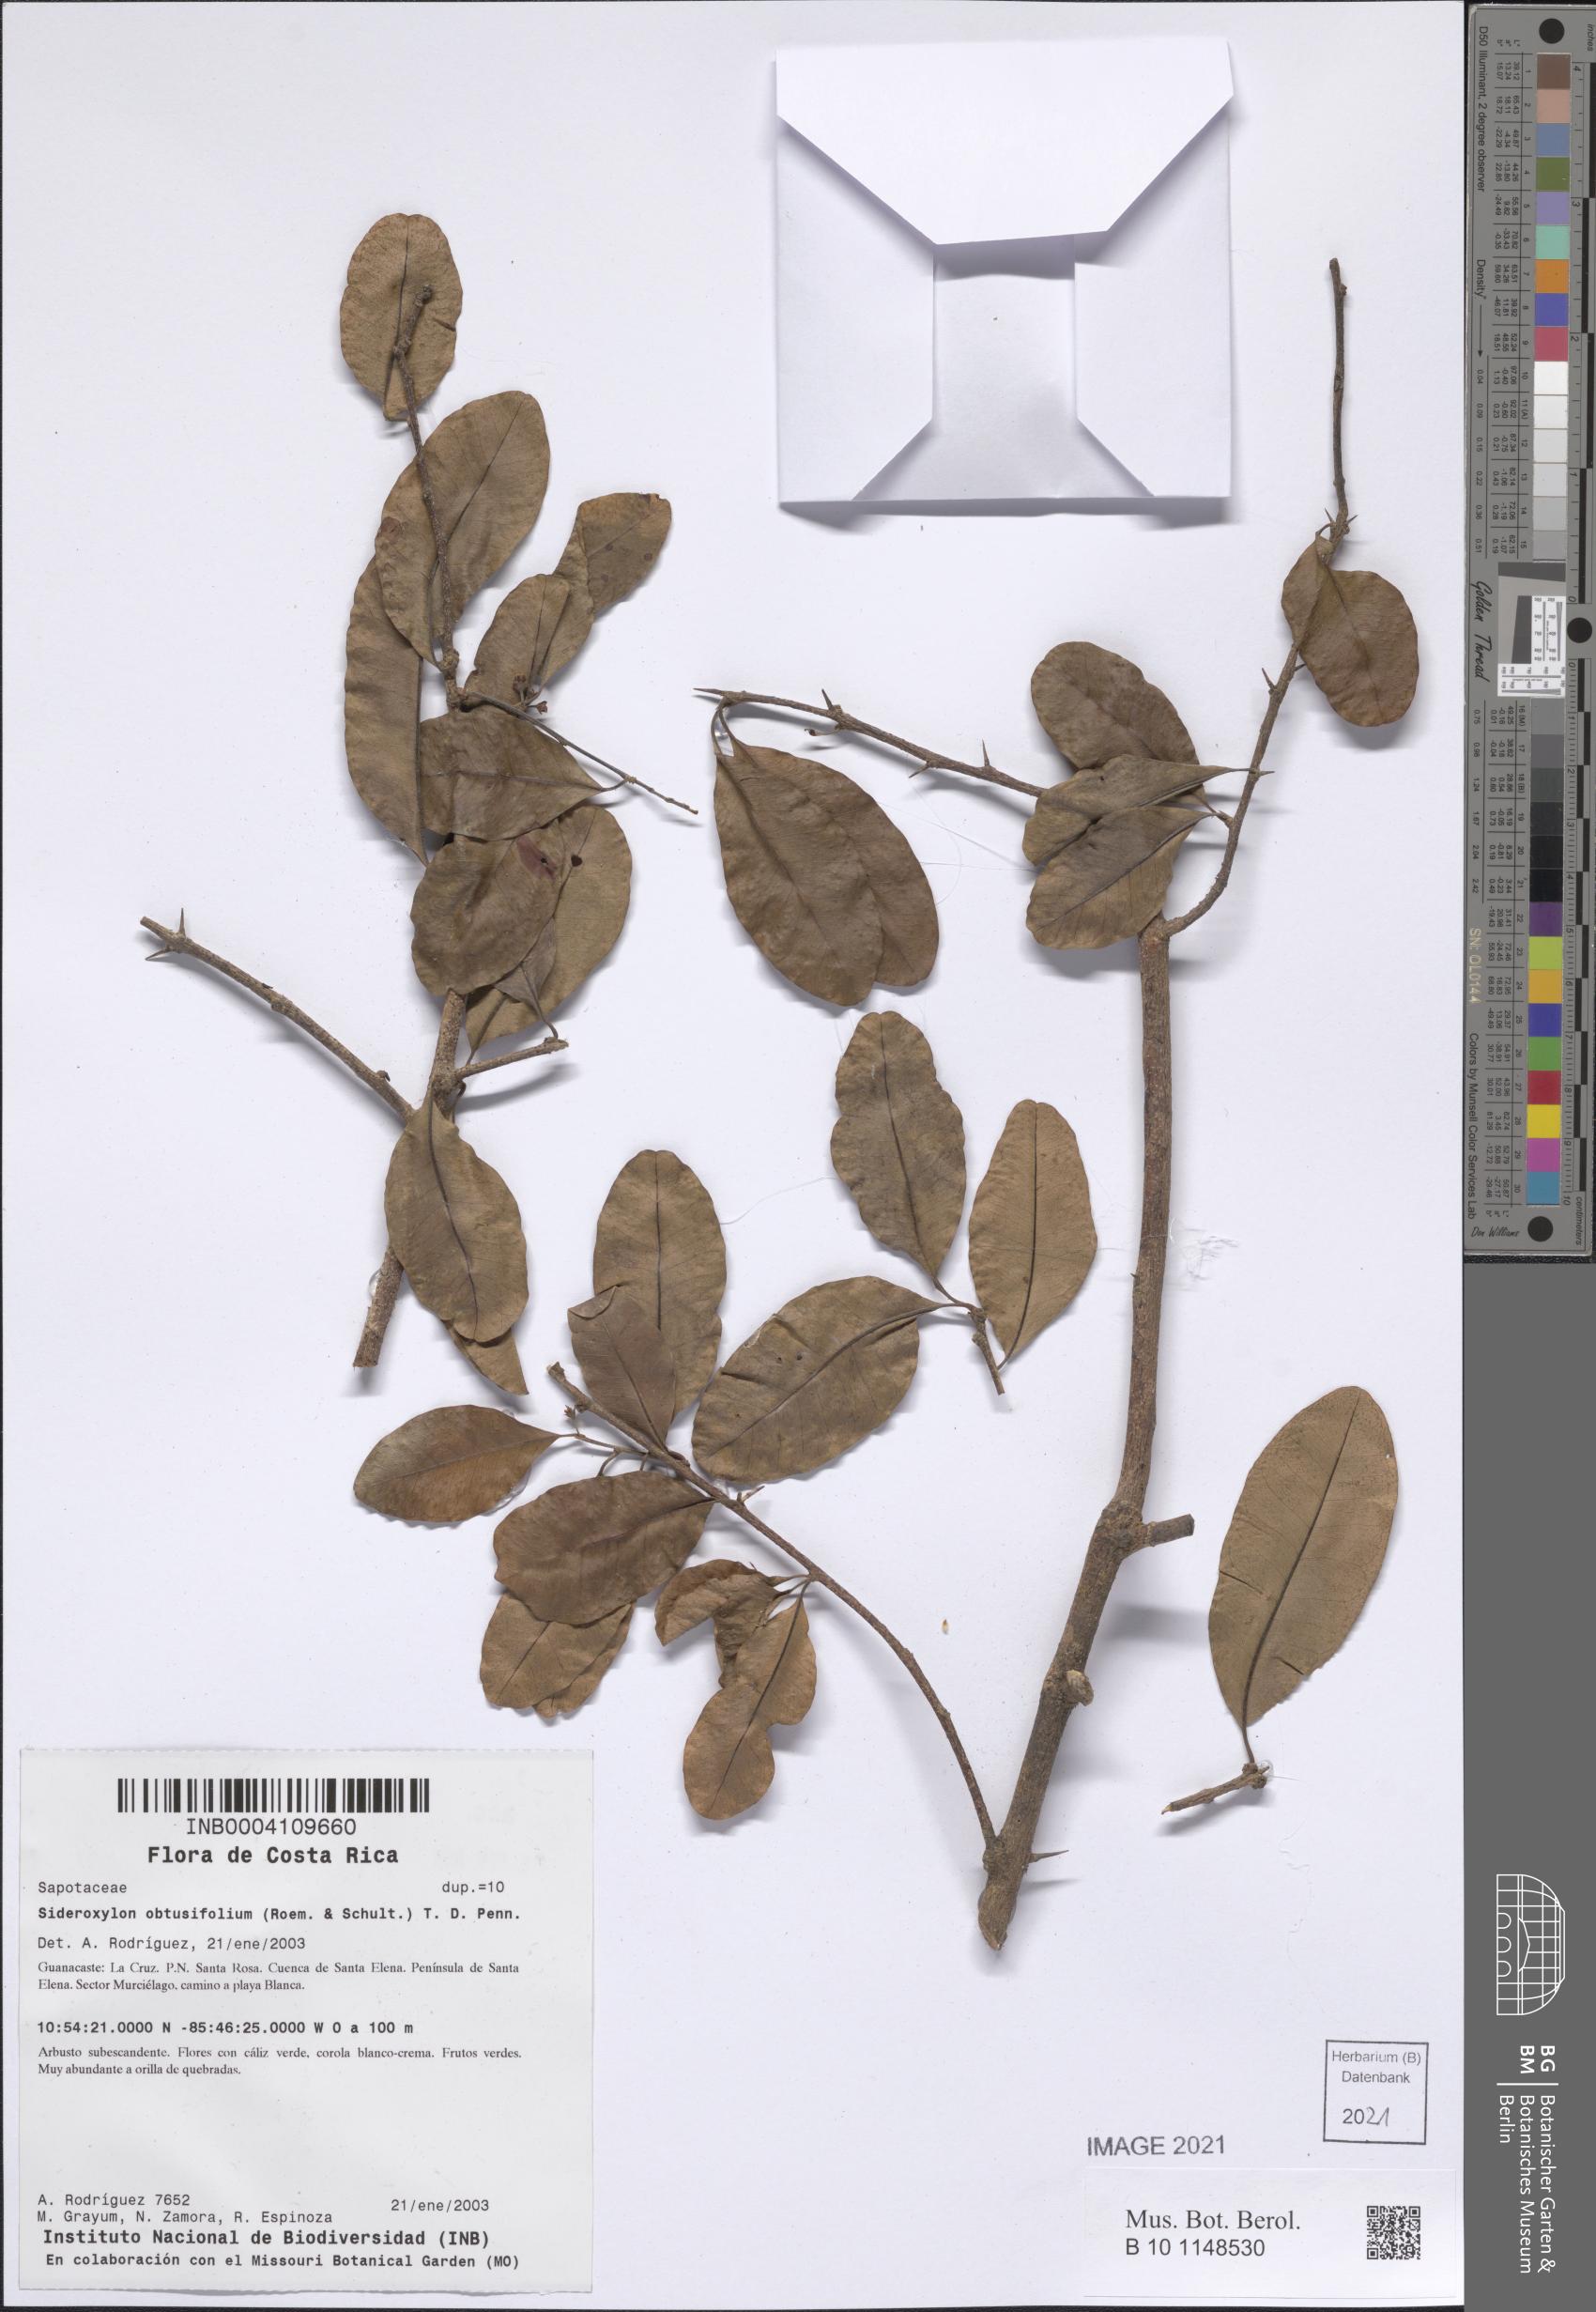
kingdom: Plantae
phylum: Tracheophyta
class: Magnoliopsida
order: Ericales
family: Sapotaceae
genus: Sideroxylon
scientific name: Sideroxylon obtusifolium
